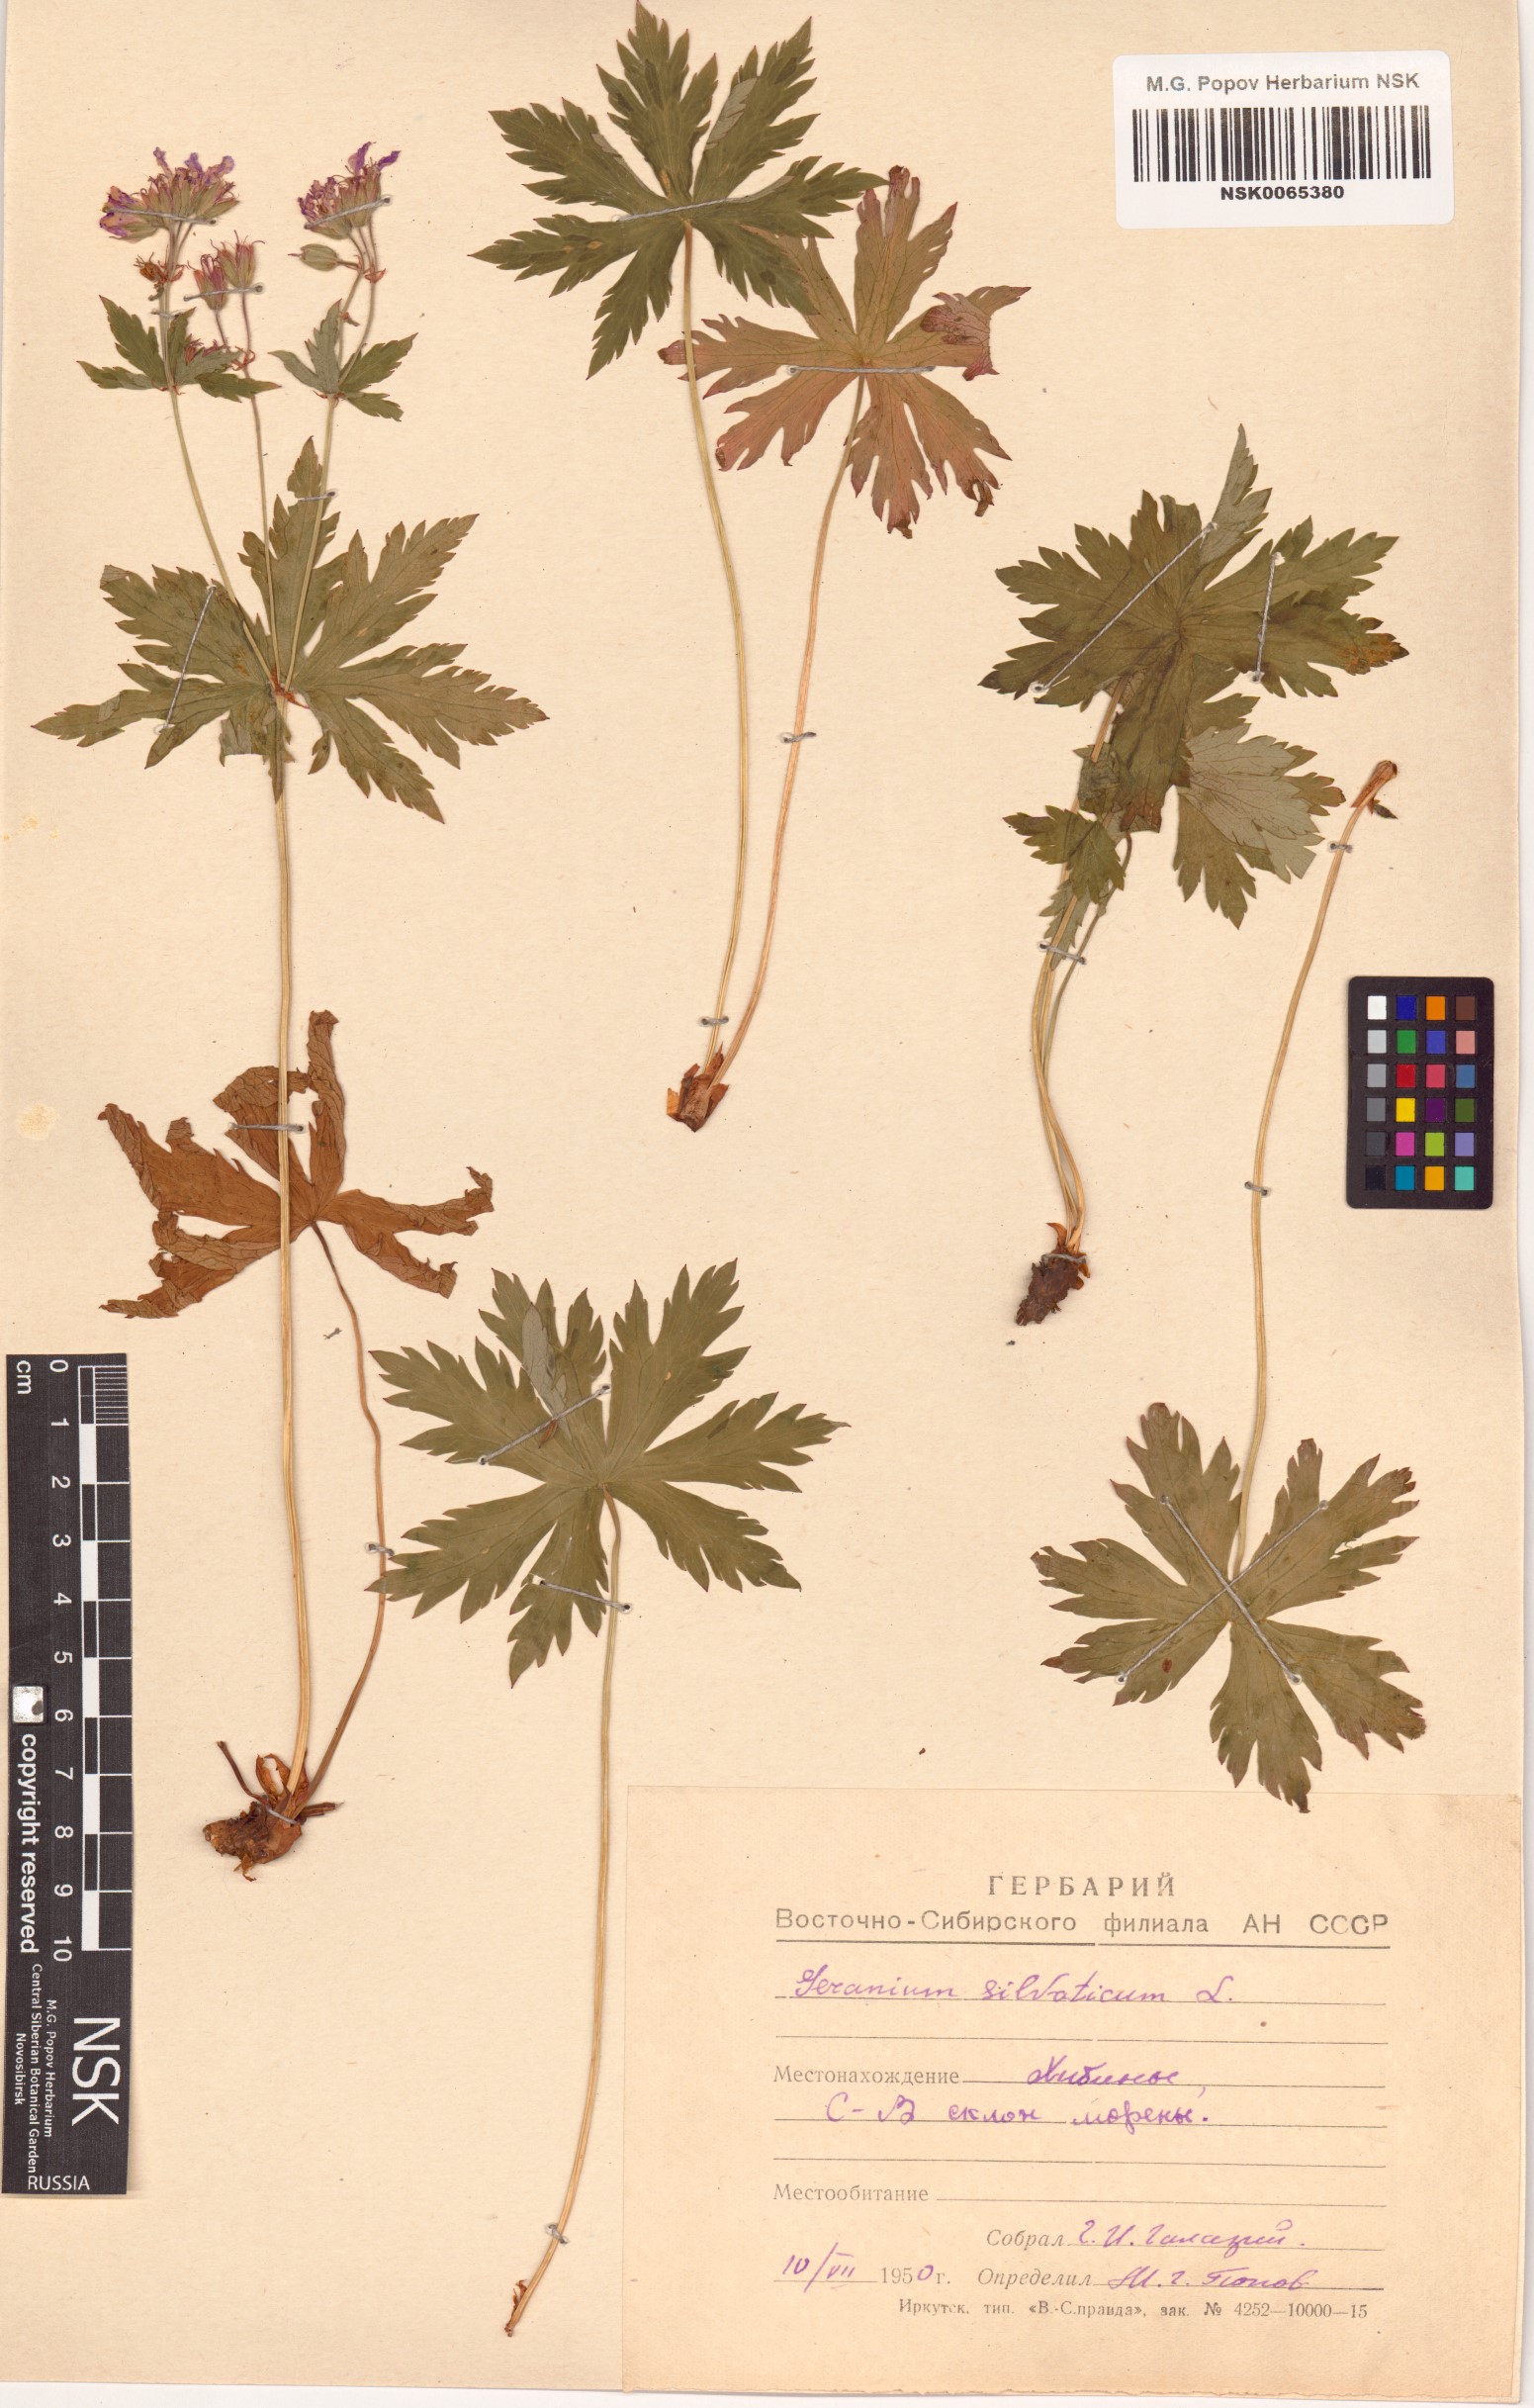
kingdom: Plantae
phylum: Tracheophyta
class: Magnoliopsida
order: Geraniales
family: Geraniaceae
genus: Geranium
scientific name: Geranium sylvaticum
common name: Wood crane's-bill
